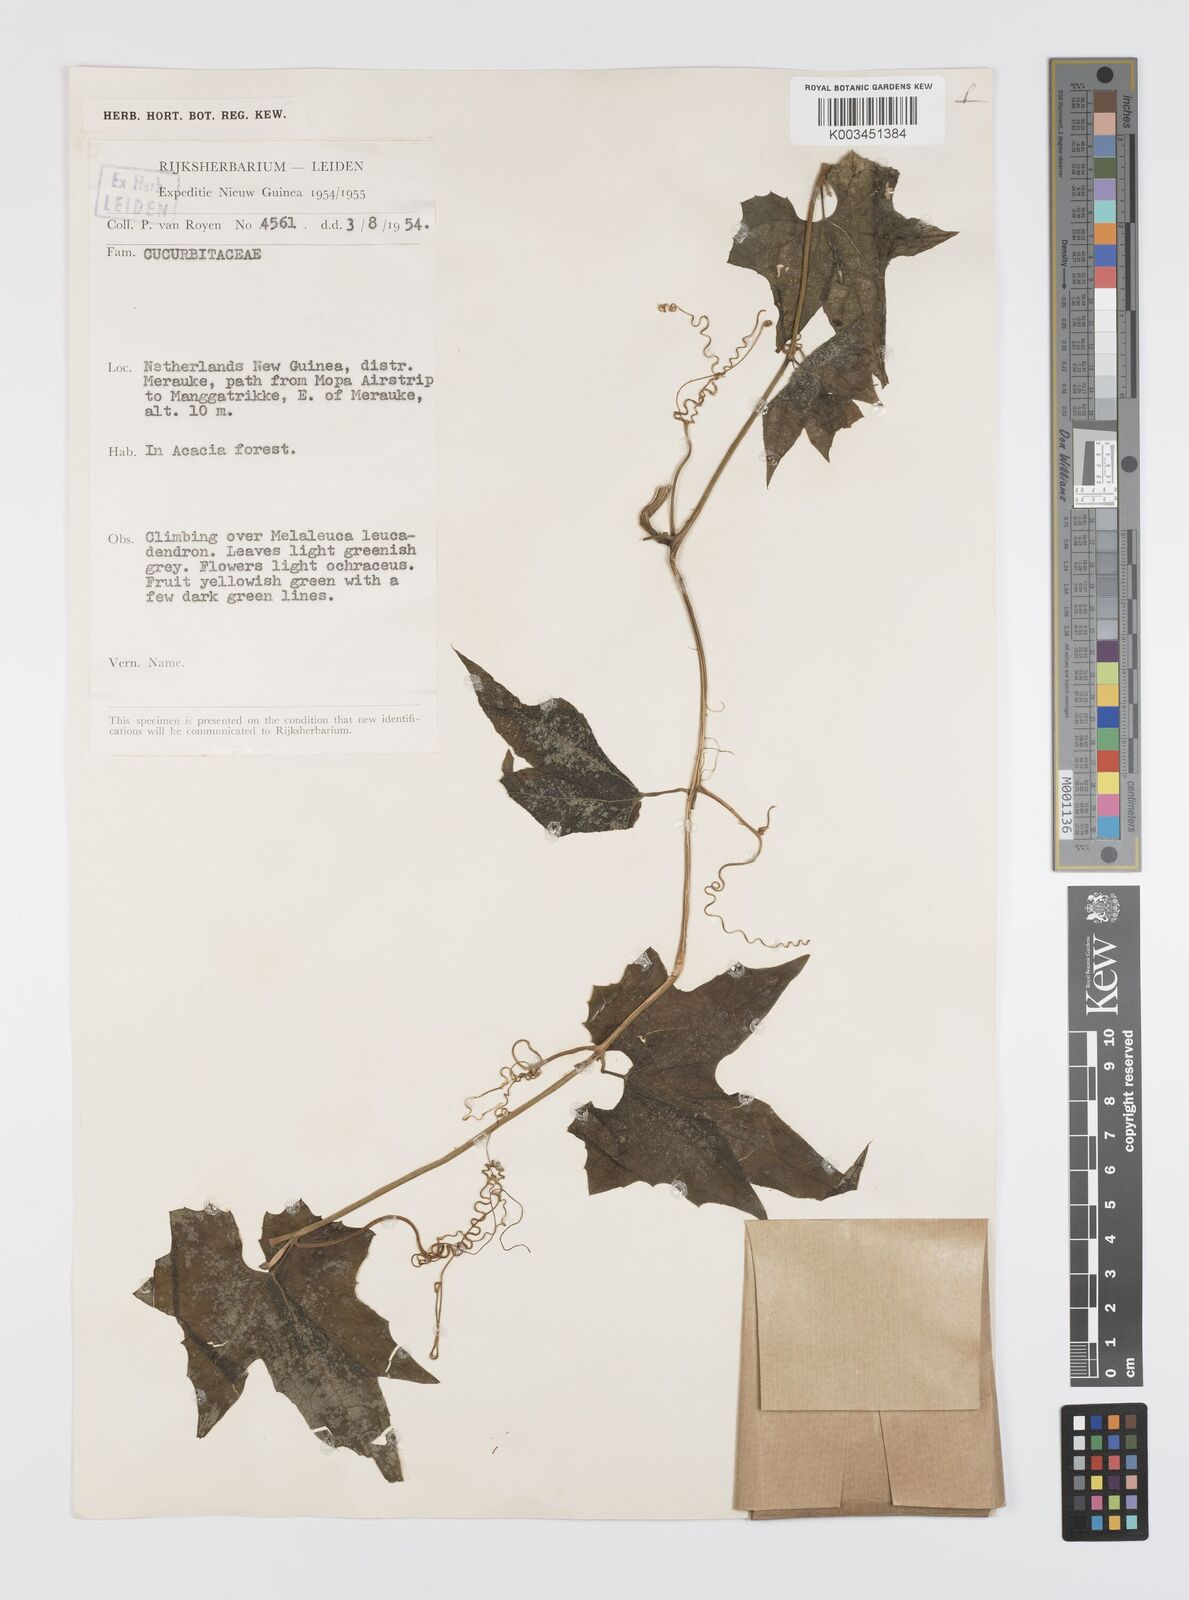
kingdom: Plantae
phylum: Tracheophyta
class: Magnoliopsida
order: Cucurbitales
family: Cucurbitaceae
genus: Luffa
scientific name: Luffa
